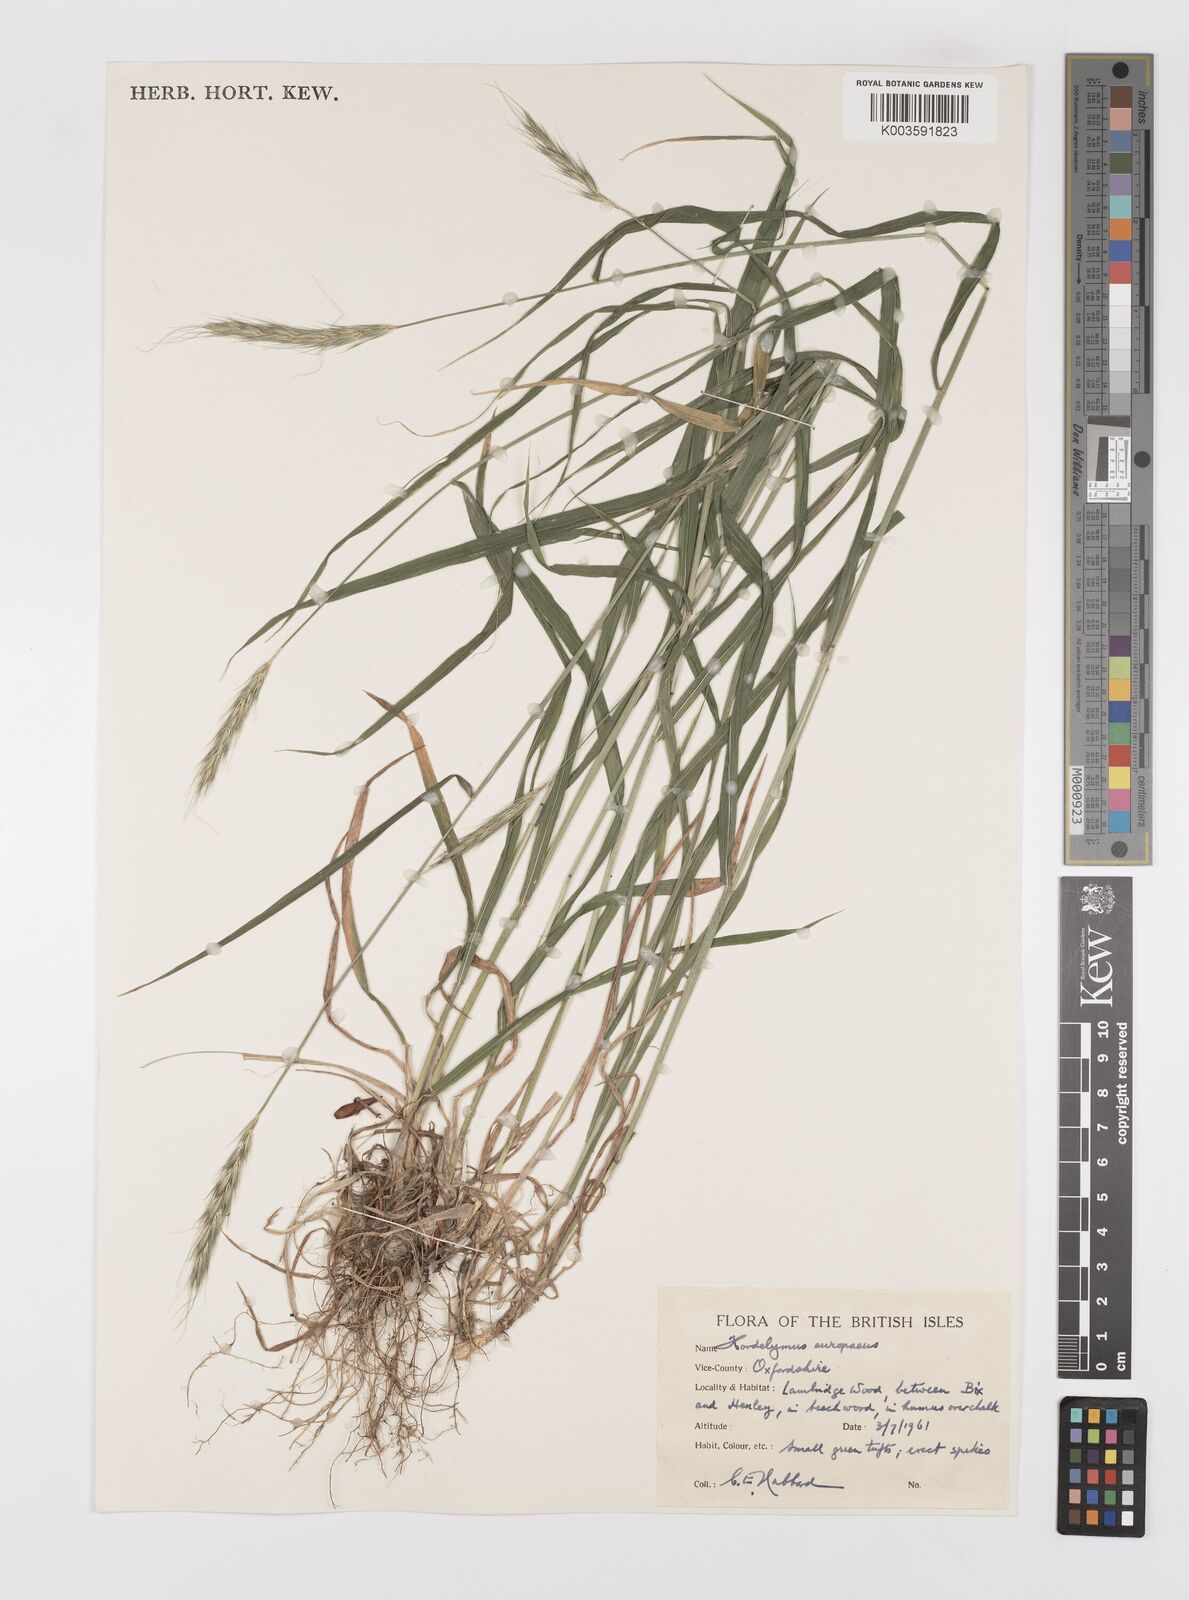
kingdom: Plantae
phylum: Tracheophyta
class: Liliopsida
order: Poales
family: Poaceae
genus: Hordelymus
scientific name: Hordelymus europaeus
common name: Wood-barley
